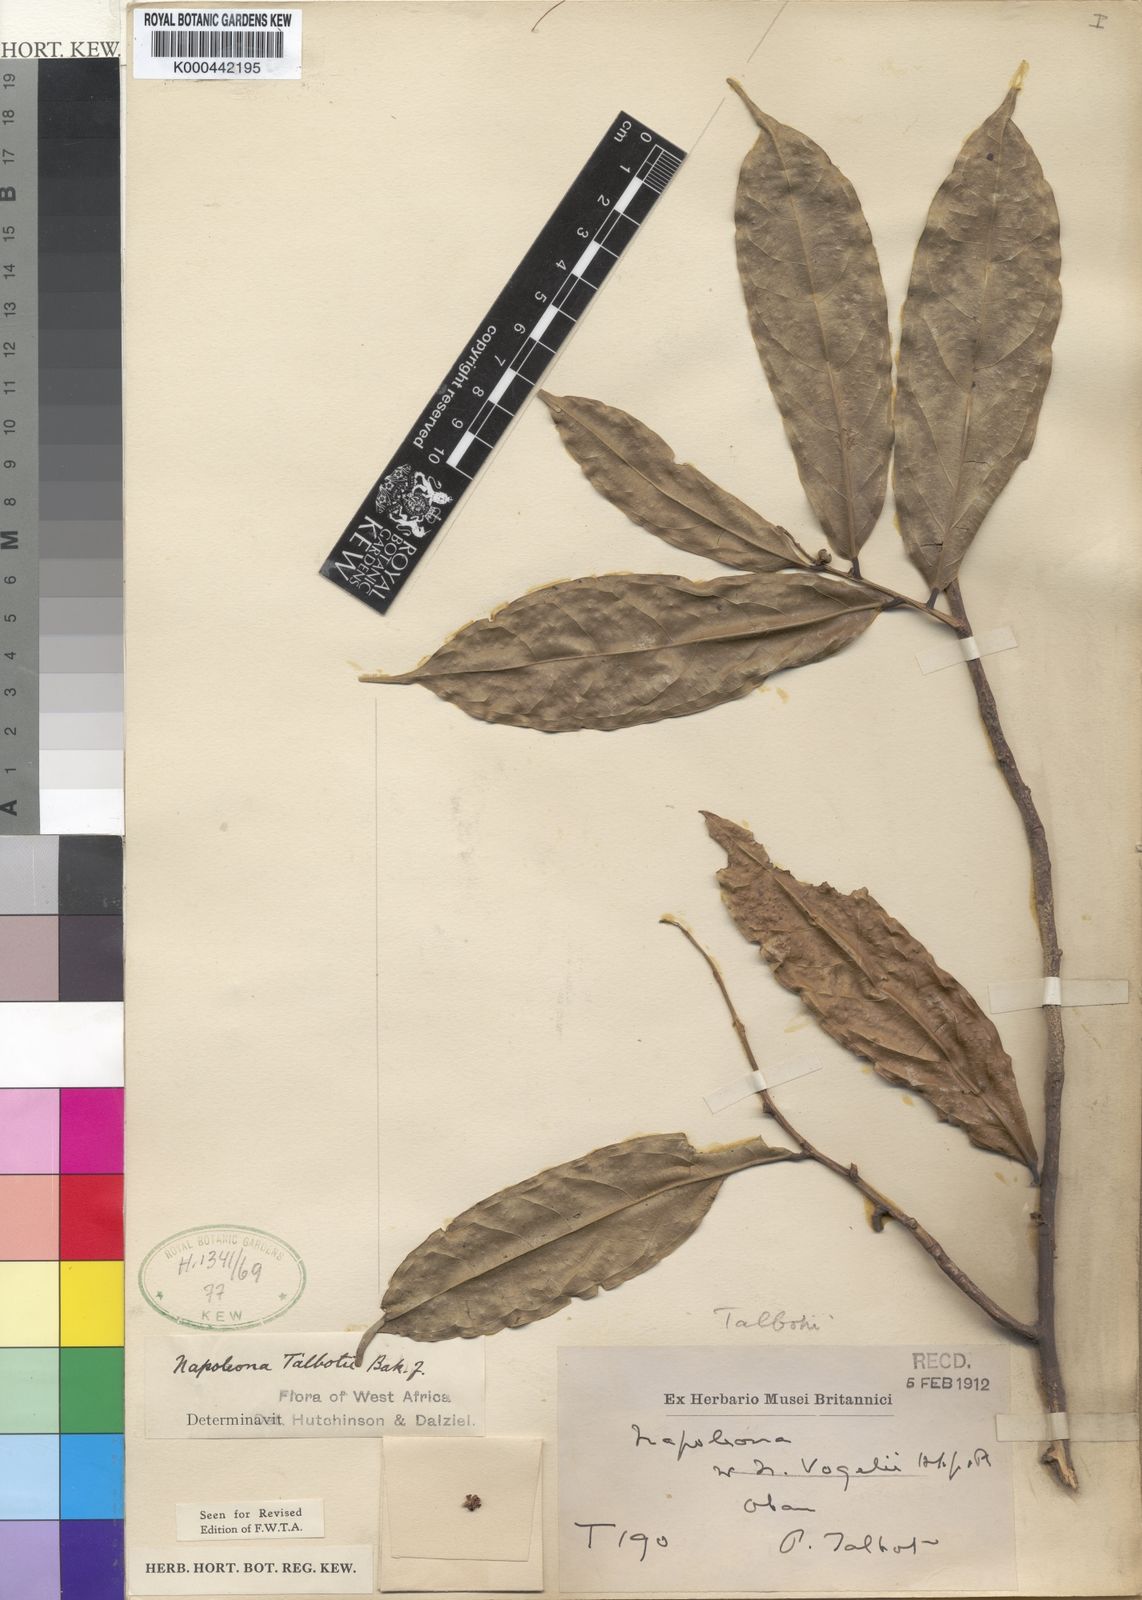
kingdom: Plantae
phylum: Tracheophyta
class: Magnoliopsida
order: Ericales
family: Lecythidaceae
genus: Napoleonaea
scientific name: Napoleonaea talbotii
